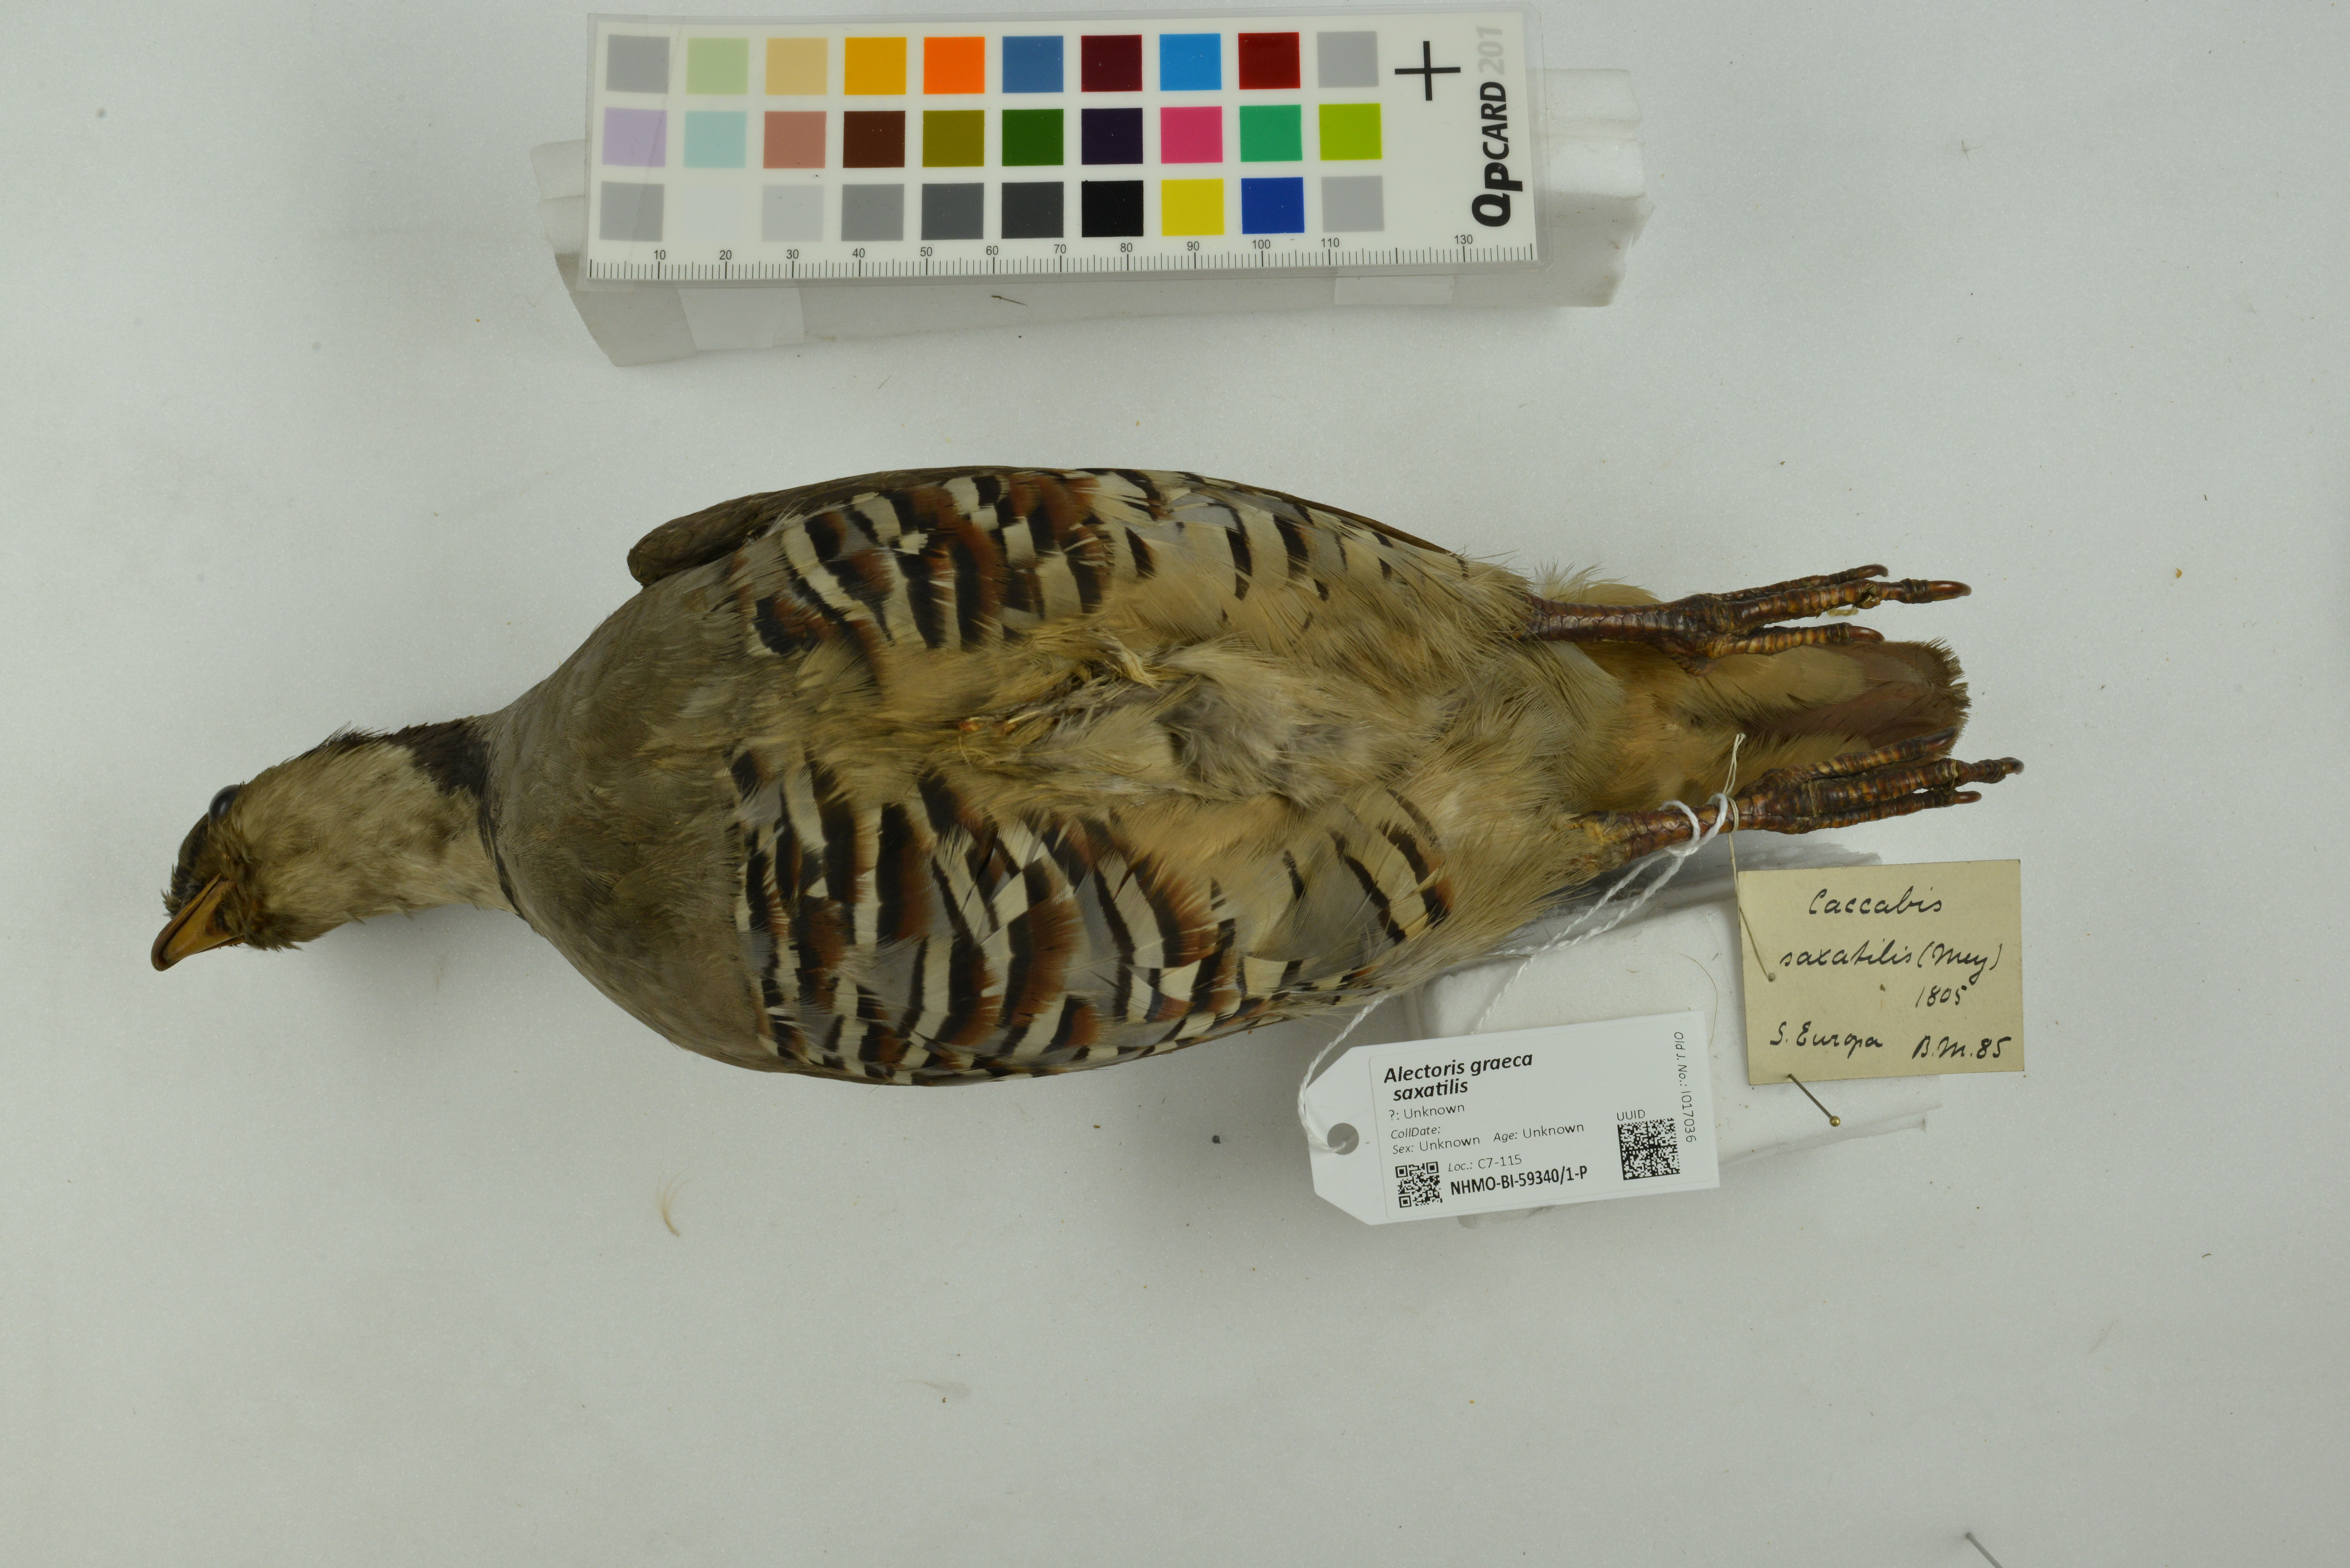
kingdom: Animalia
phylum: Chordata
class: Aves
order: Galliformes
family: Phasianidae
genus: Alectoris
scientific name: Alectoris graeca
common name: Rock partridge
